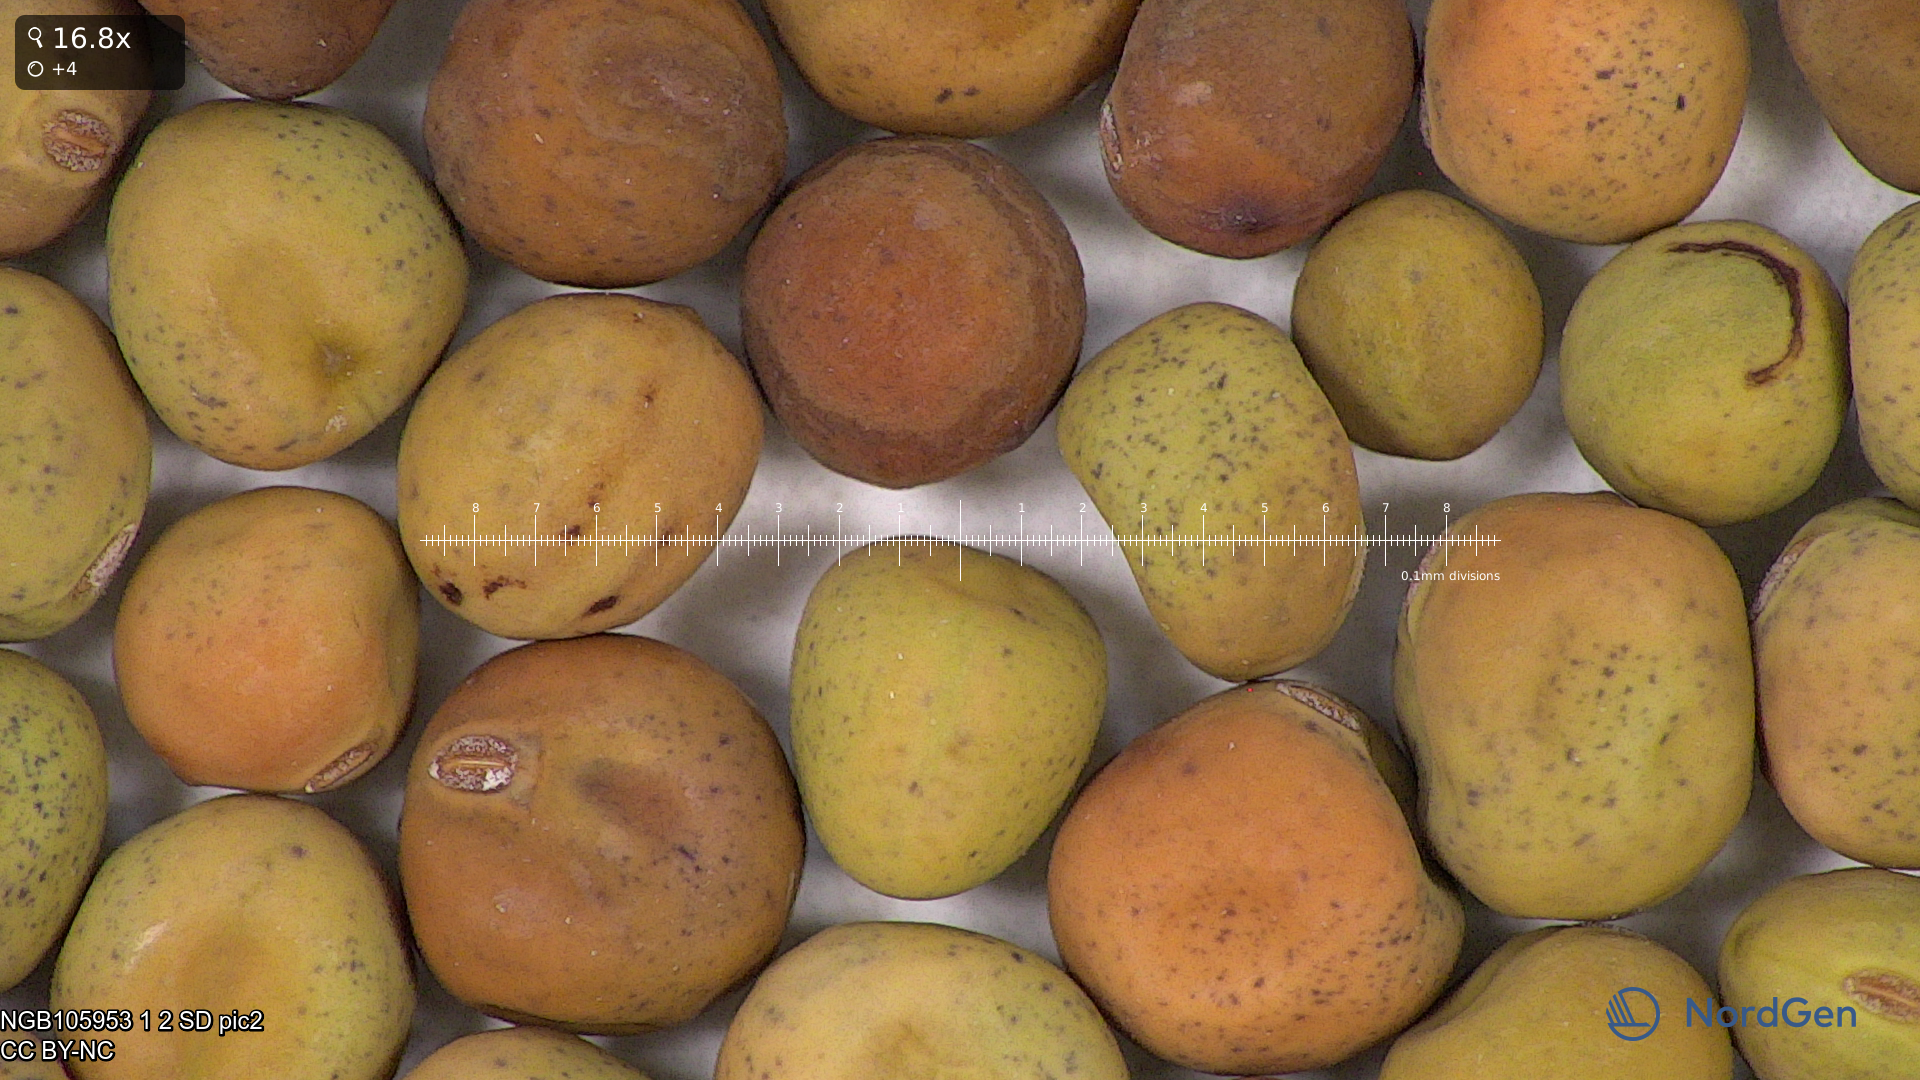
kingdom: Plantae
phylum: Tracheophyta
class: Magnoliopsida
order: Fabales
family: Fabaceae
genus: Lathyrus
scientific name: Lathyrus oleraceus
